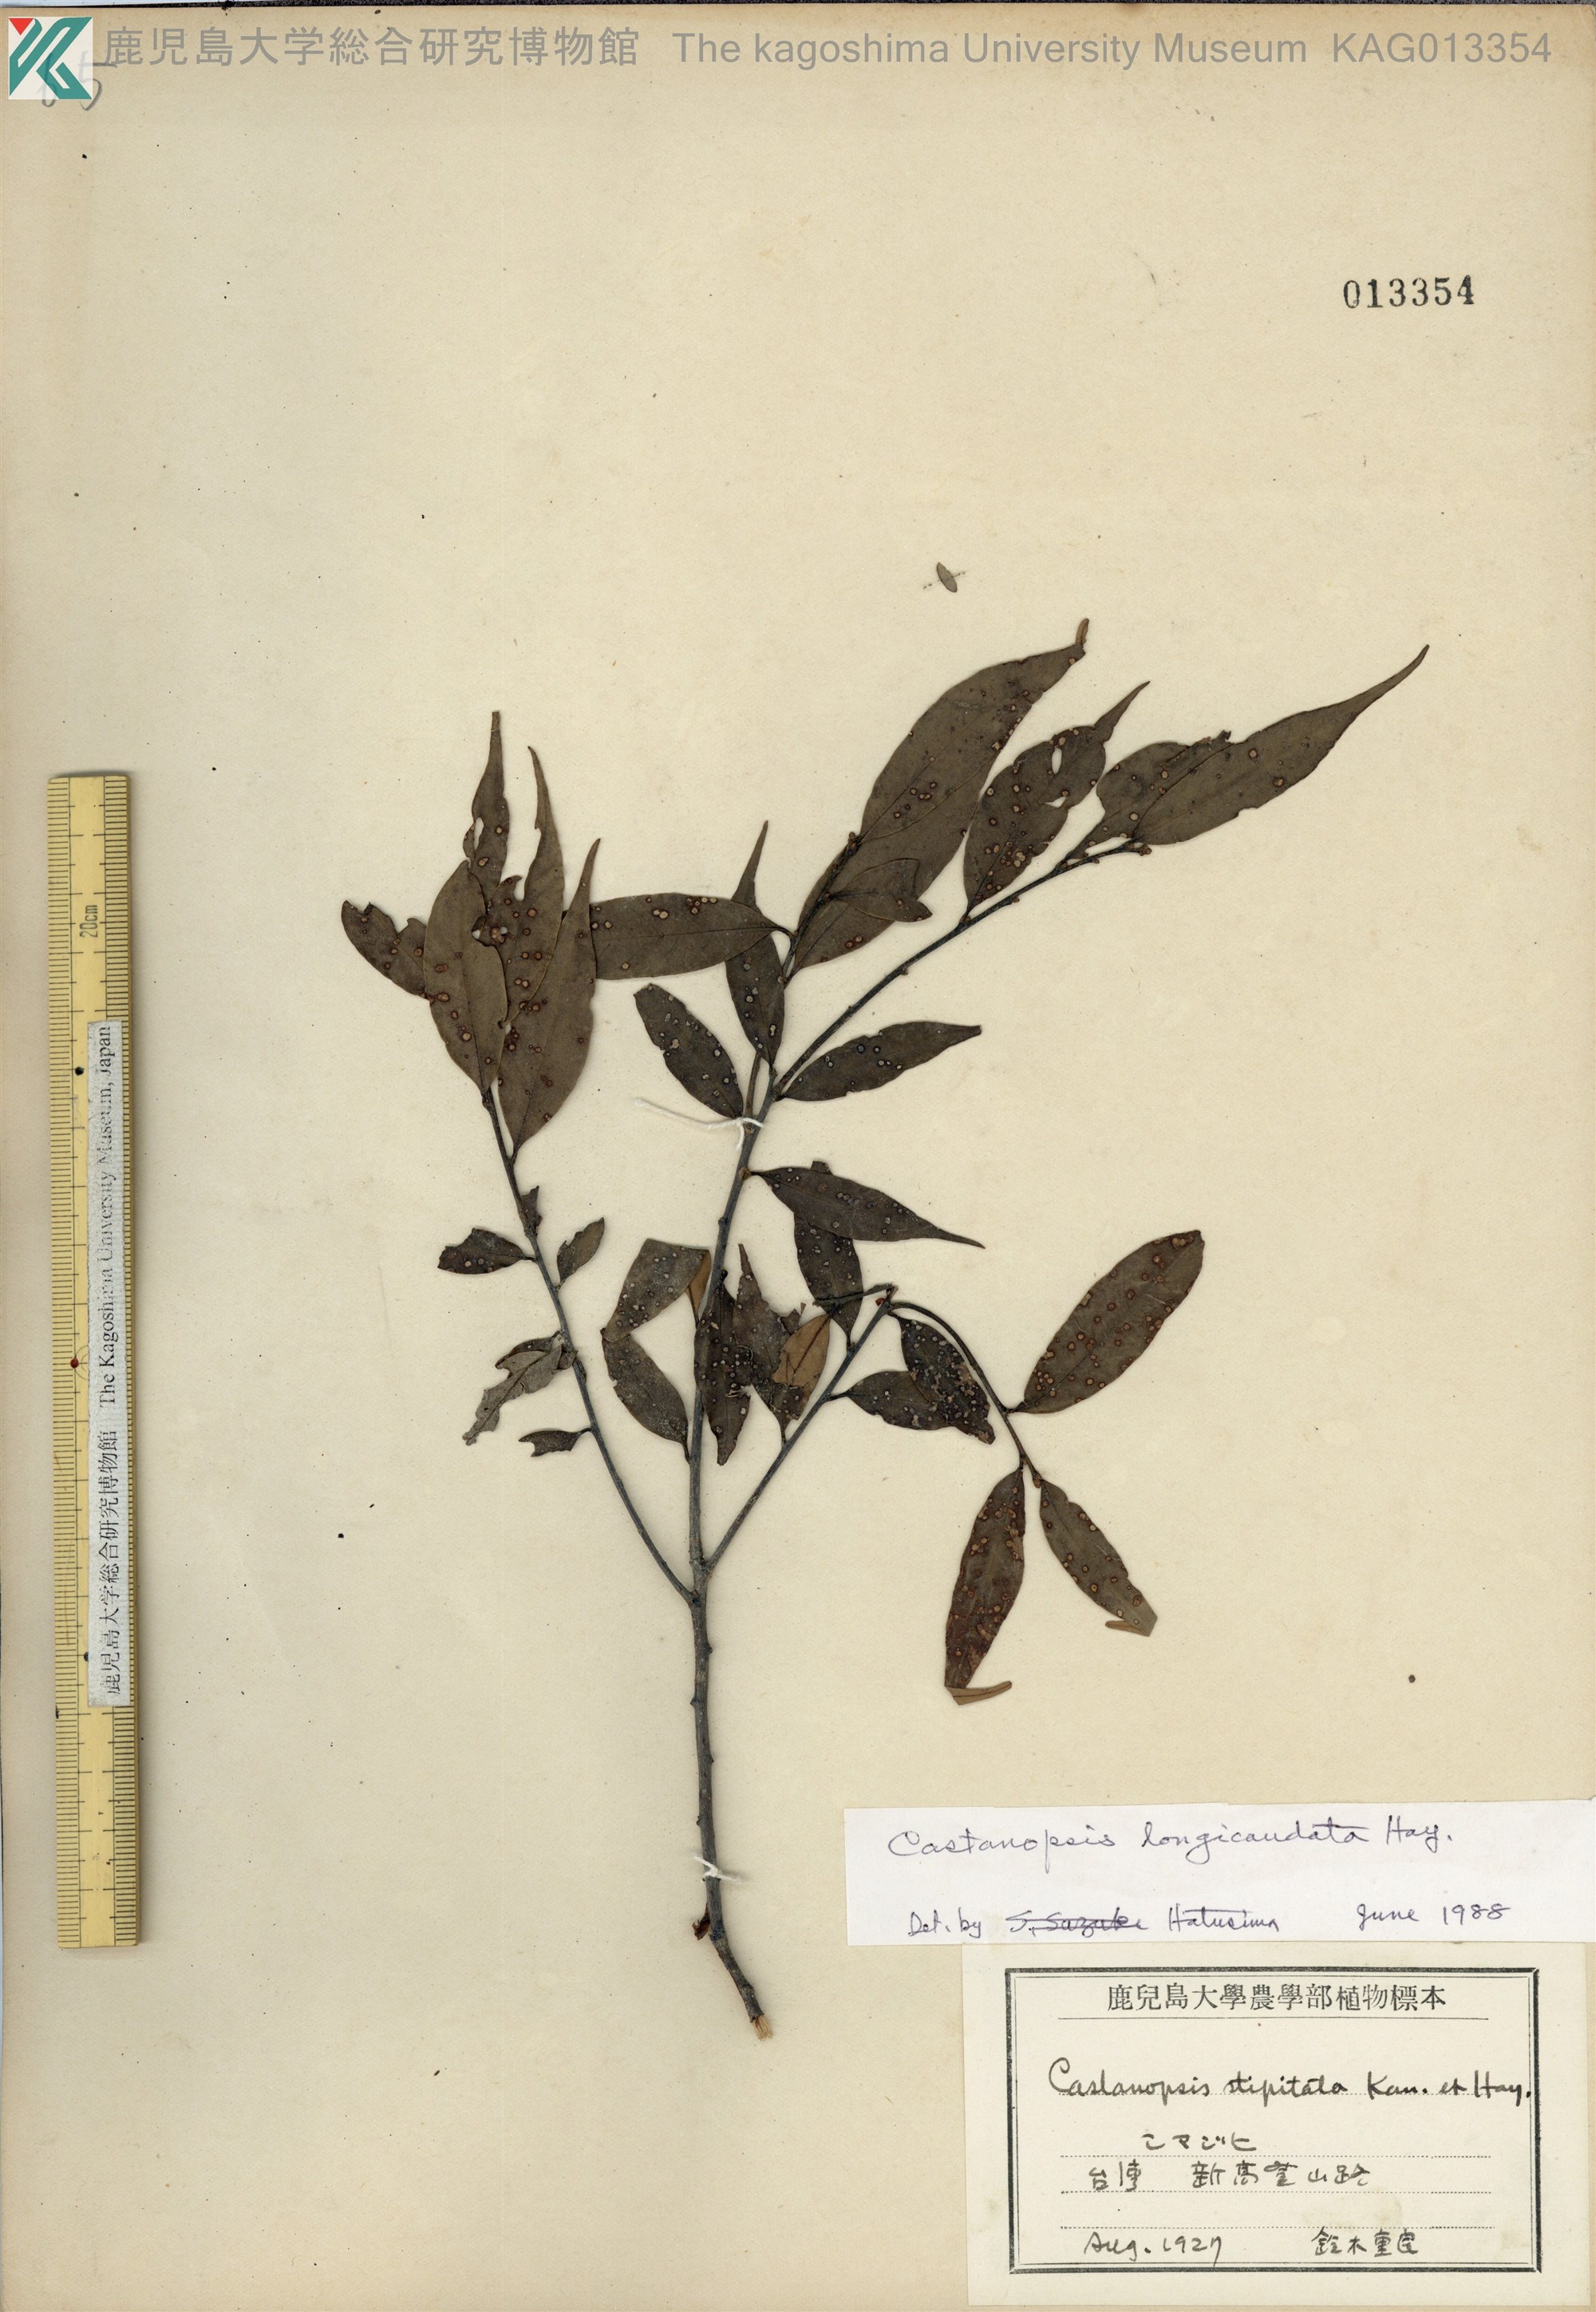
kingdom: Plantae
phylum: Tracheophyta
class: Magnoliopsida
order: Fagales
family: Fagaceae
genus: Castanopsis
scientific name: Castanopsis carlesii
